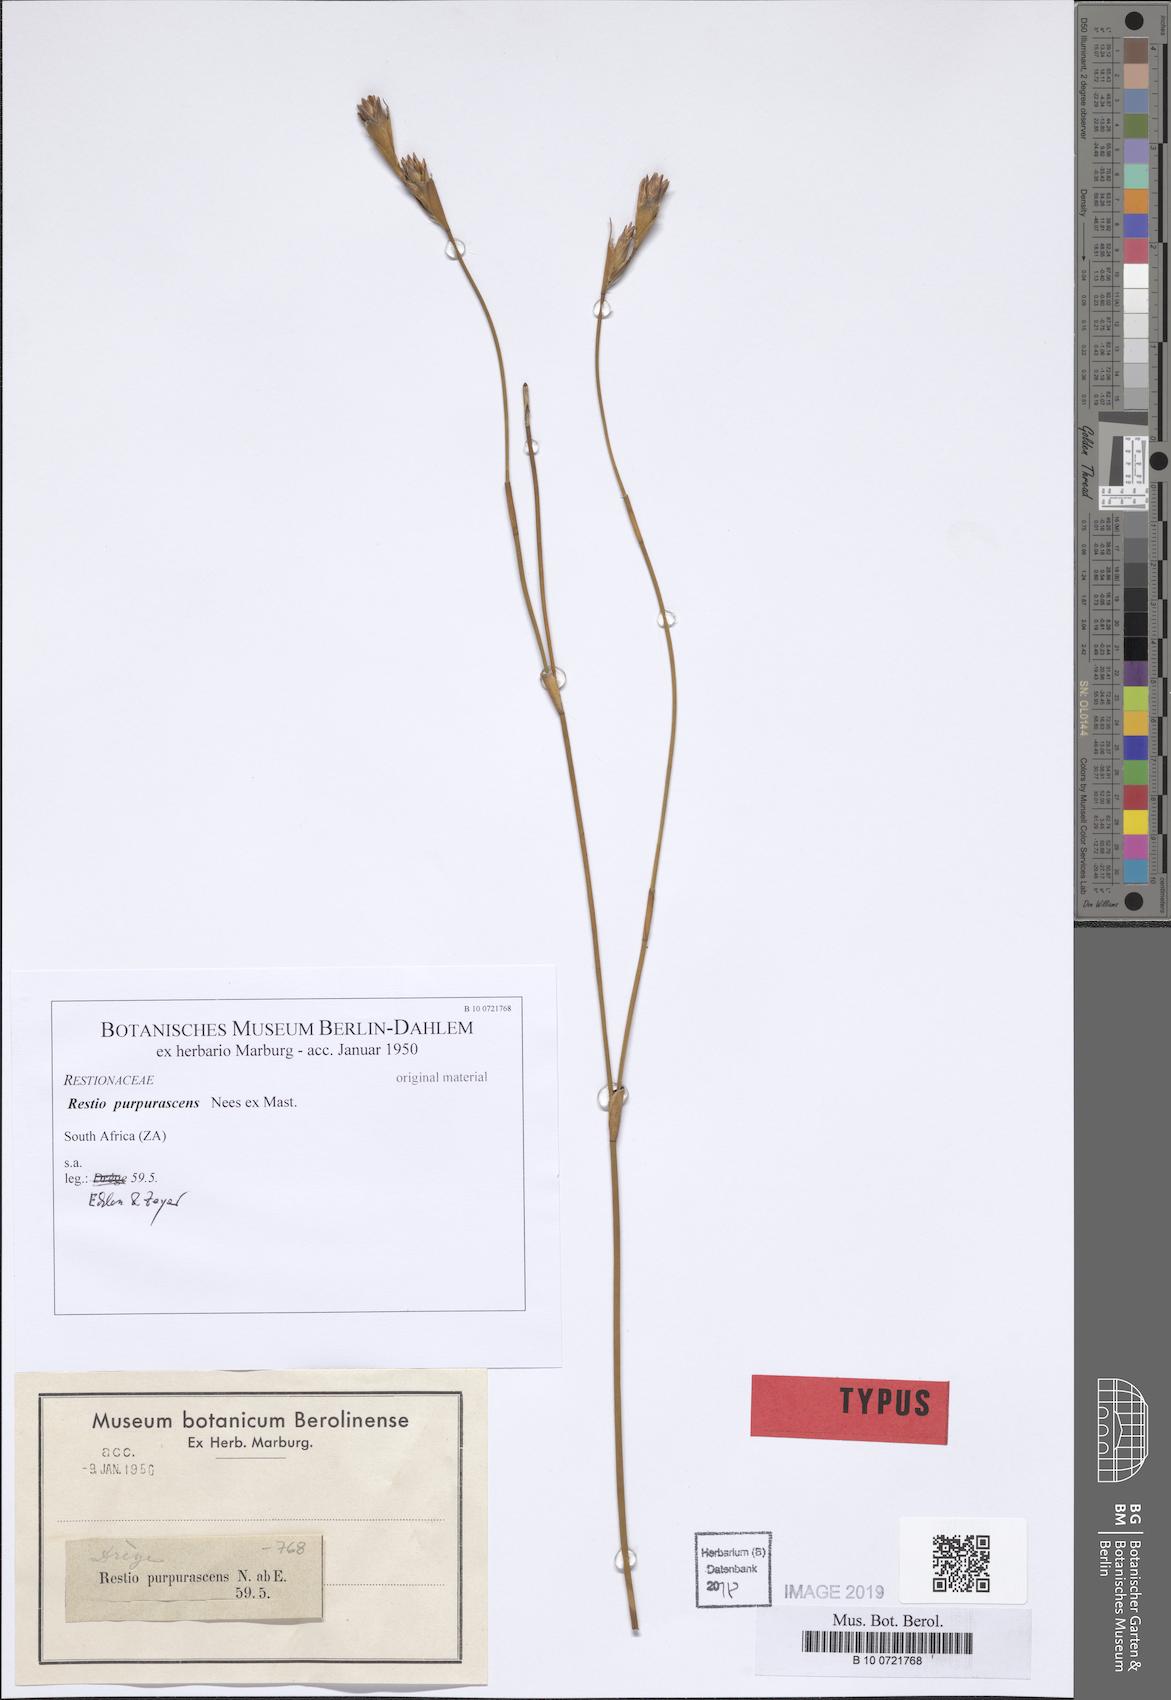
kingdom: Plantae
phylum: Tracheophyta
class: Liliopsida
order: Poales
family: Restionaceae
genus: Restio
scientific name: Restio purpurascens
